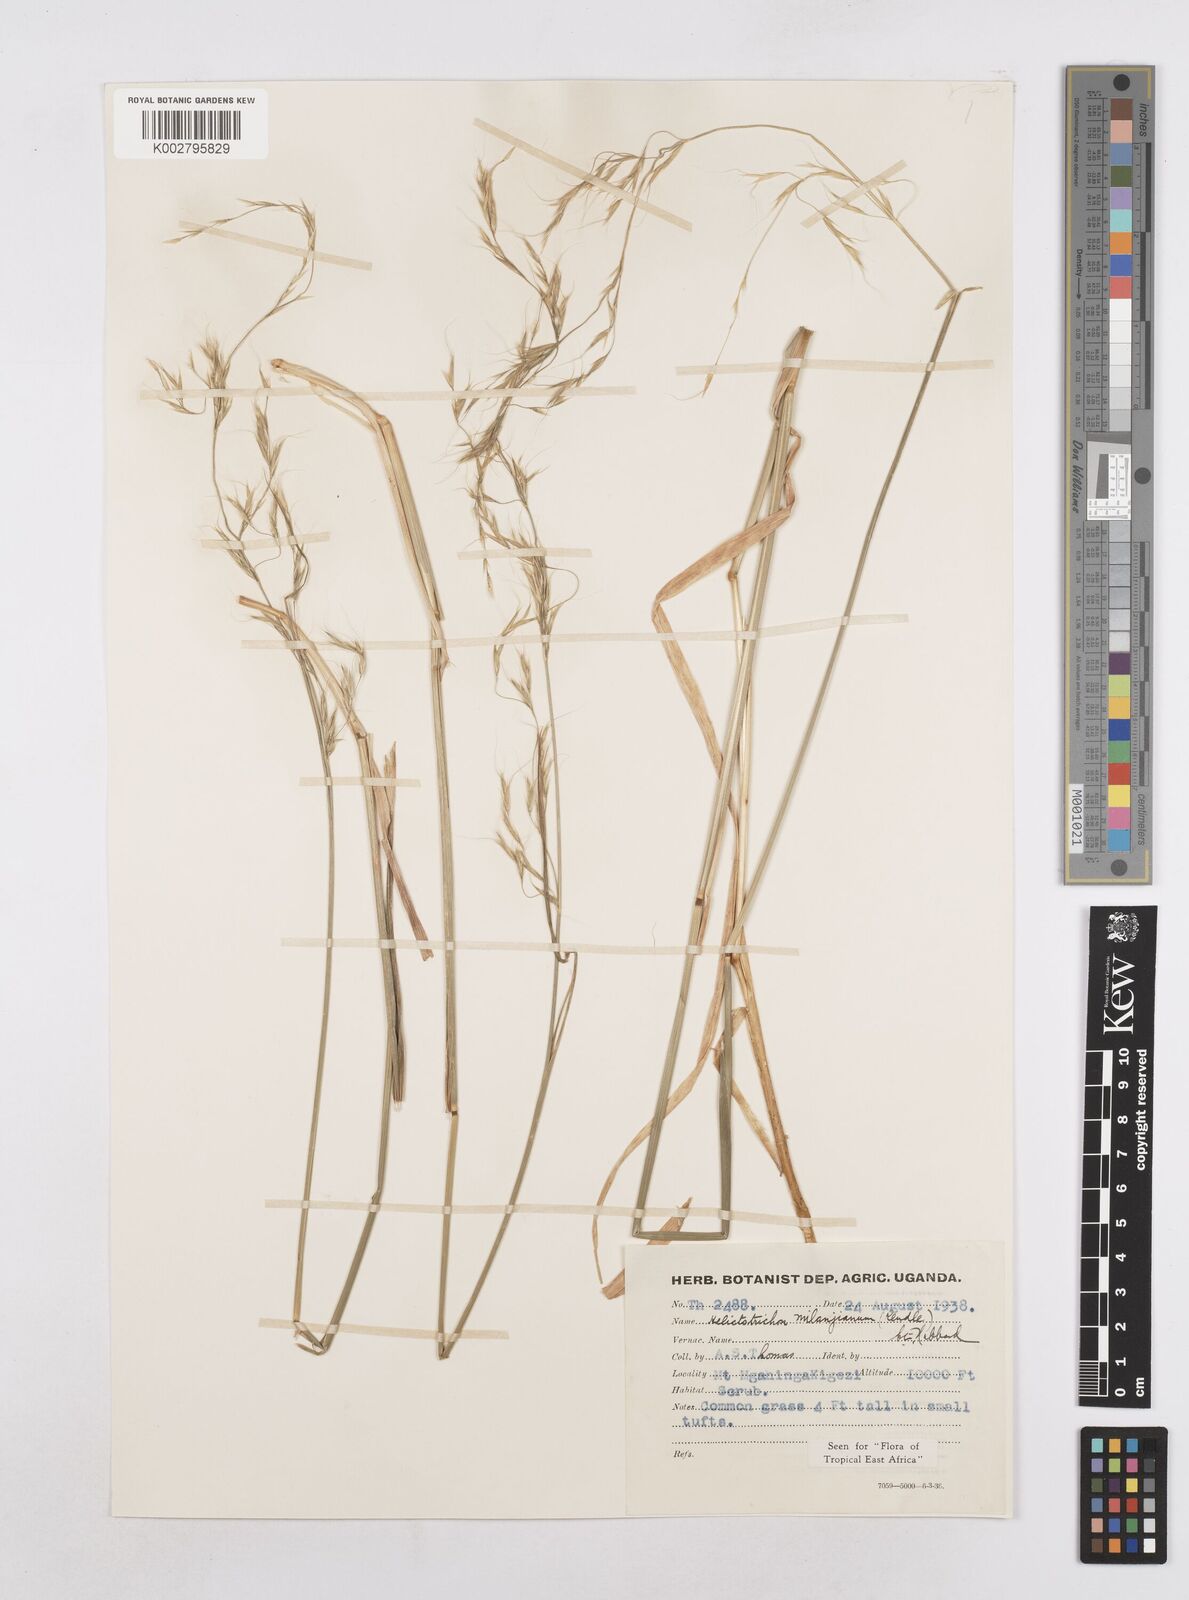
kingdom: Plantae
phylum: Tracheophyta
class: Liliopsida
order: Poales
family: Poaceae
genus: Trisetopsis
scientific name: Trisetopsis milanjiana
